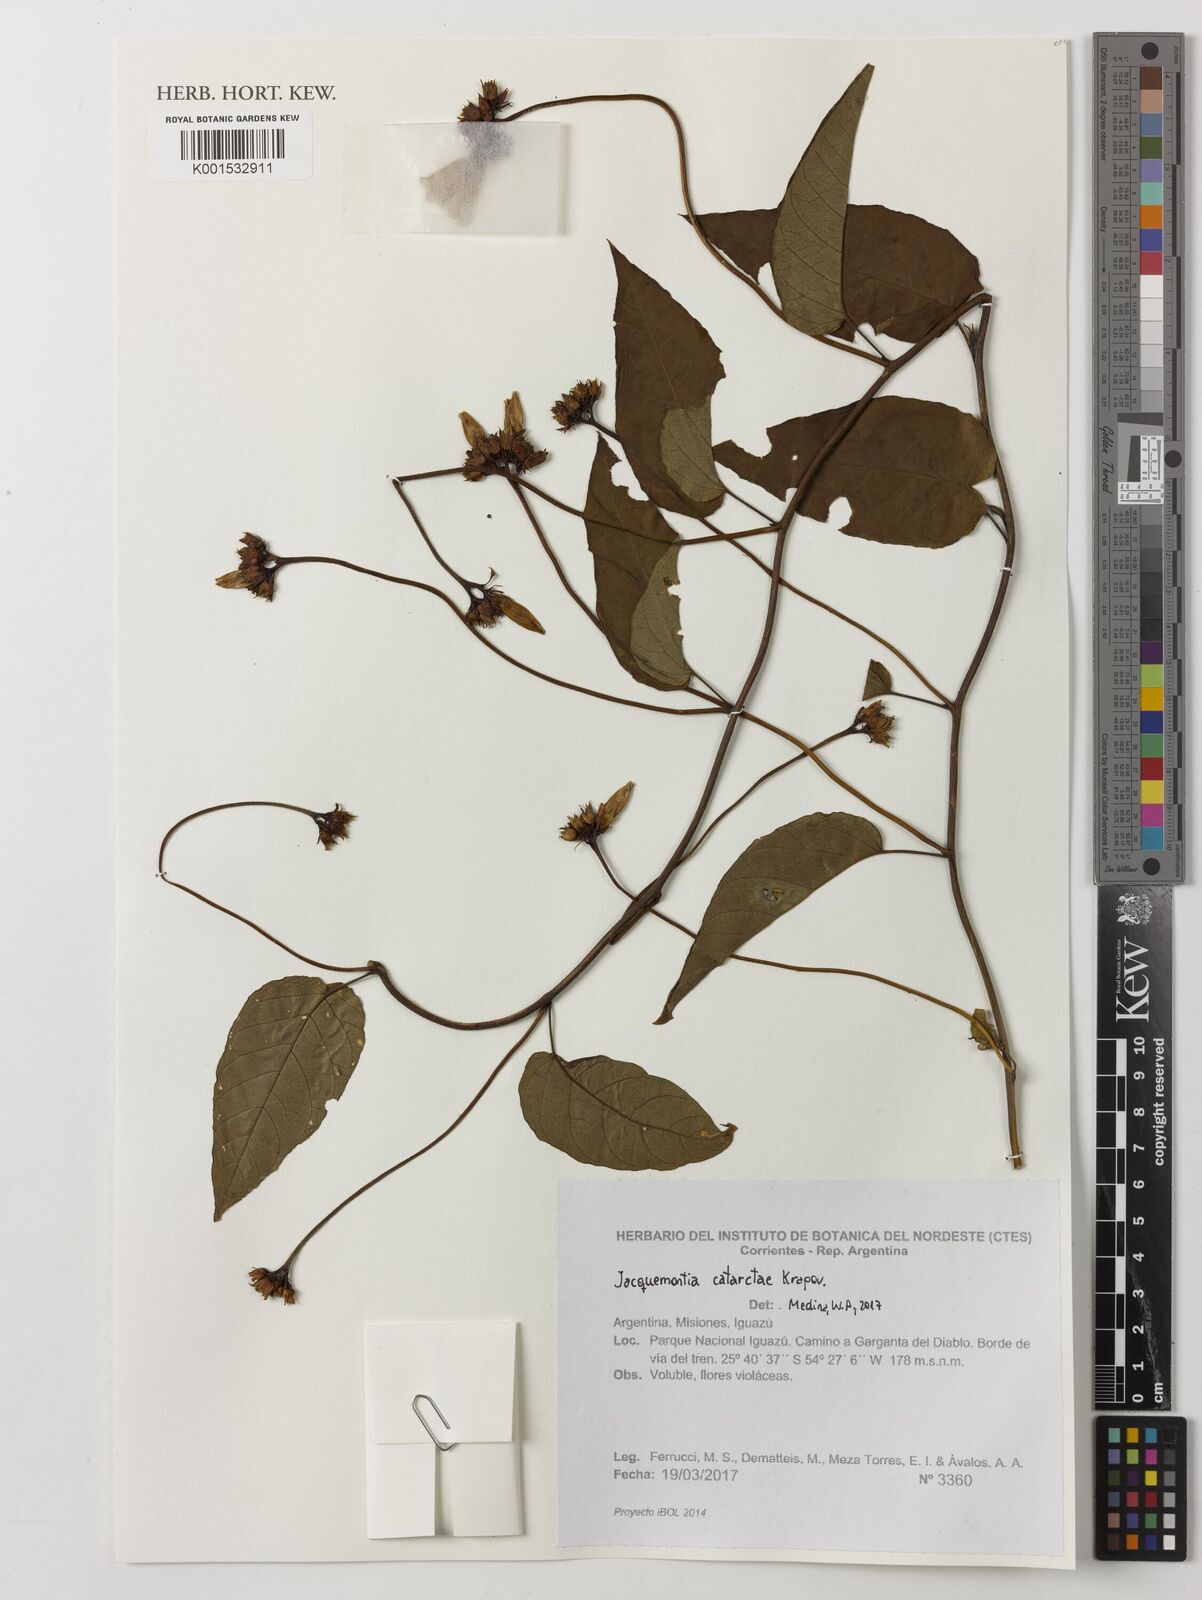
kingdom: Plantae
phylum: Tracheophyta
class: Magnoliopsida
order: Solanales
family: Convolvulaceae
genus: Jacquemontia
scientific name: Jacquemontia cataractae
